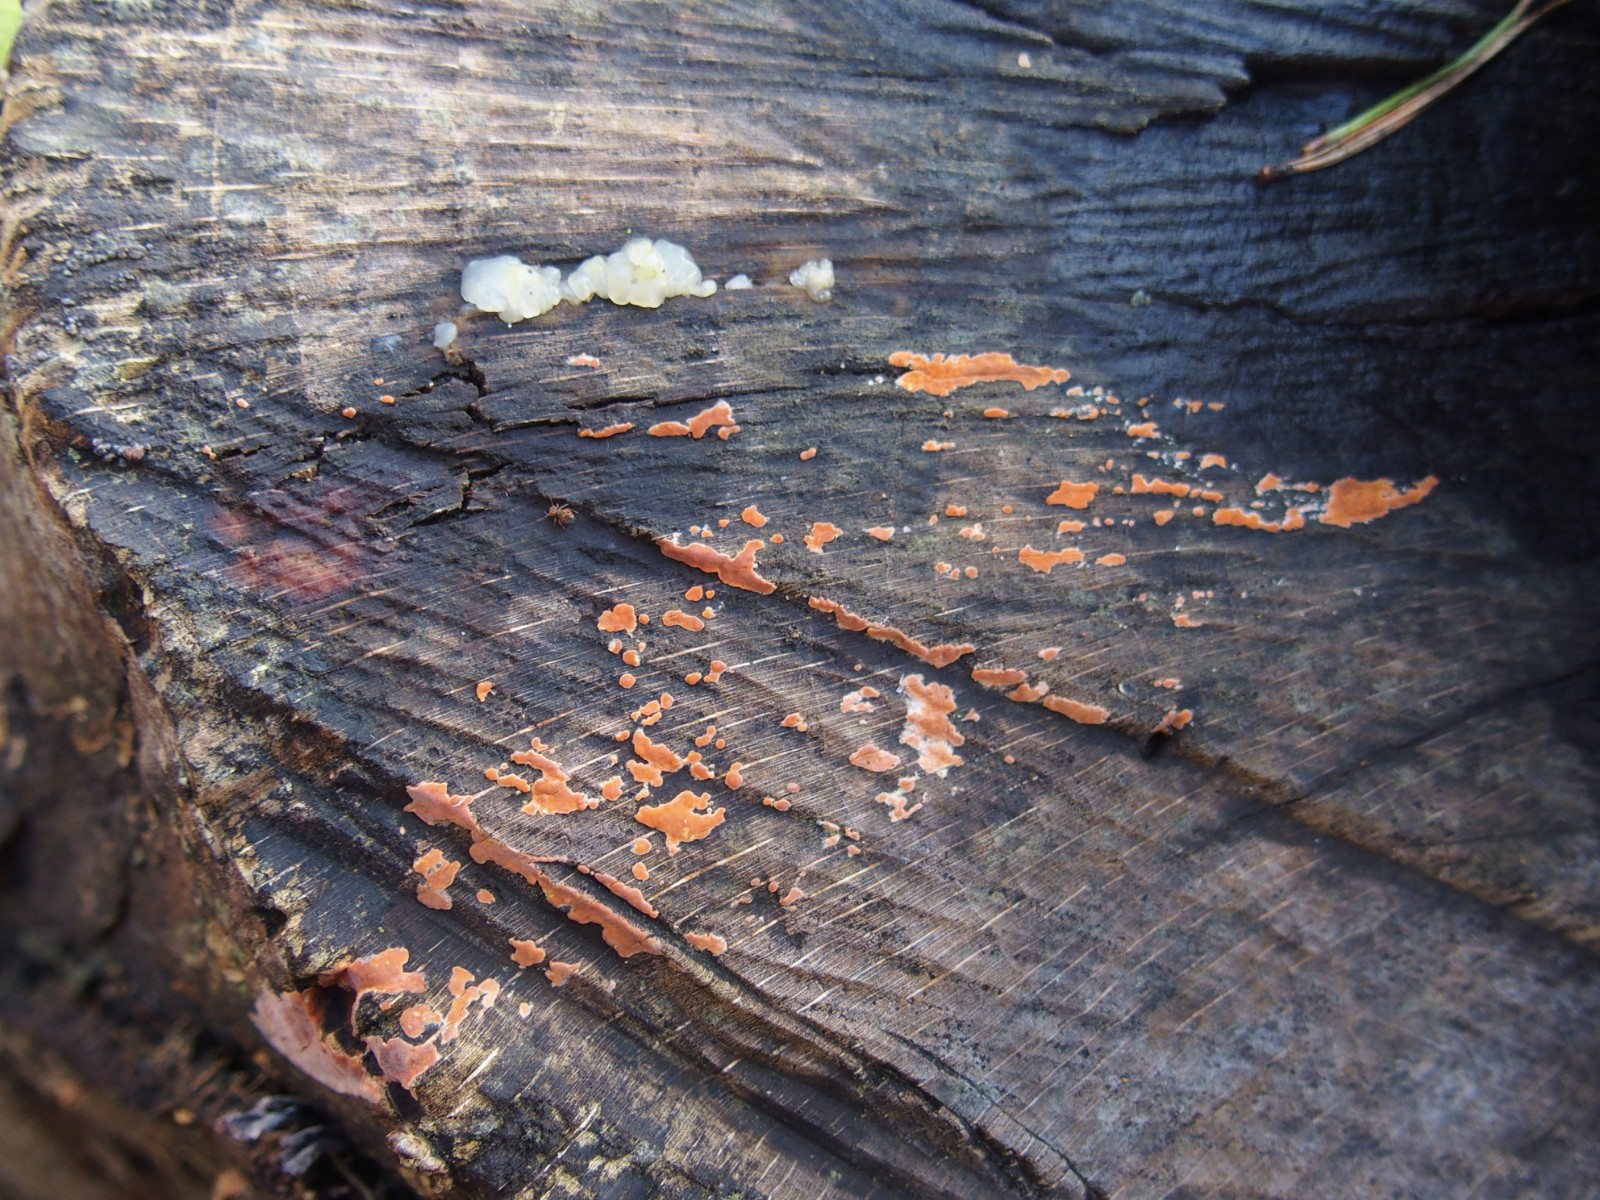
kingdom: Fungi
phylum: Basidiomycota
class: Agaricomycetes
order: Russulales
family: Peniophoraceae
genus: Peniophora
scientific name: Peniophora incarnata
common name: laksefarvet voksskind
